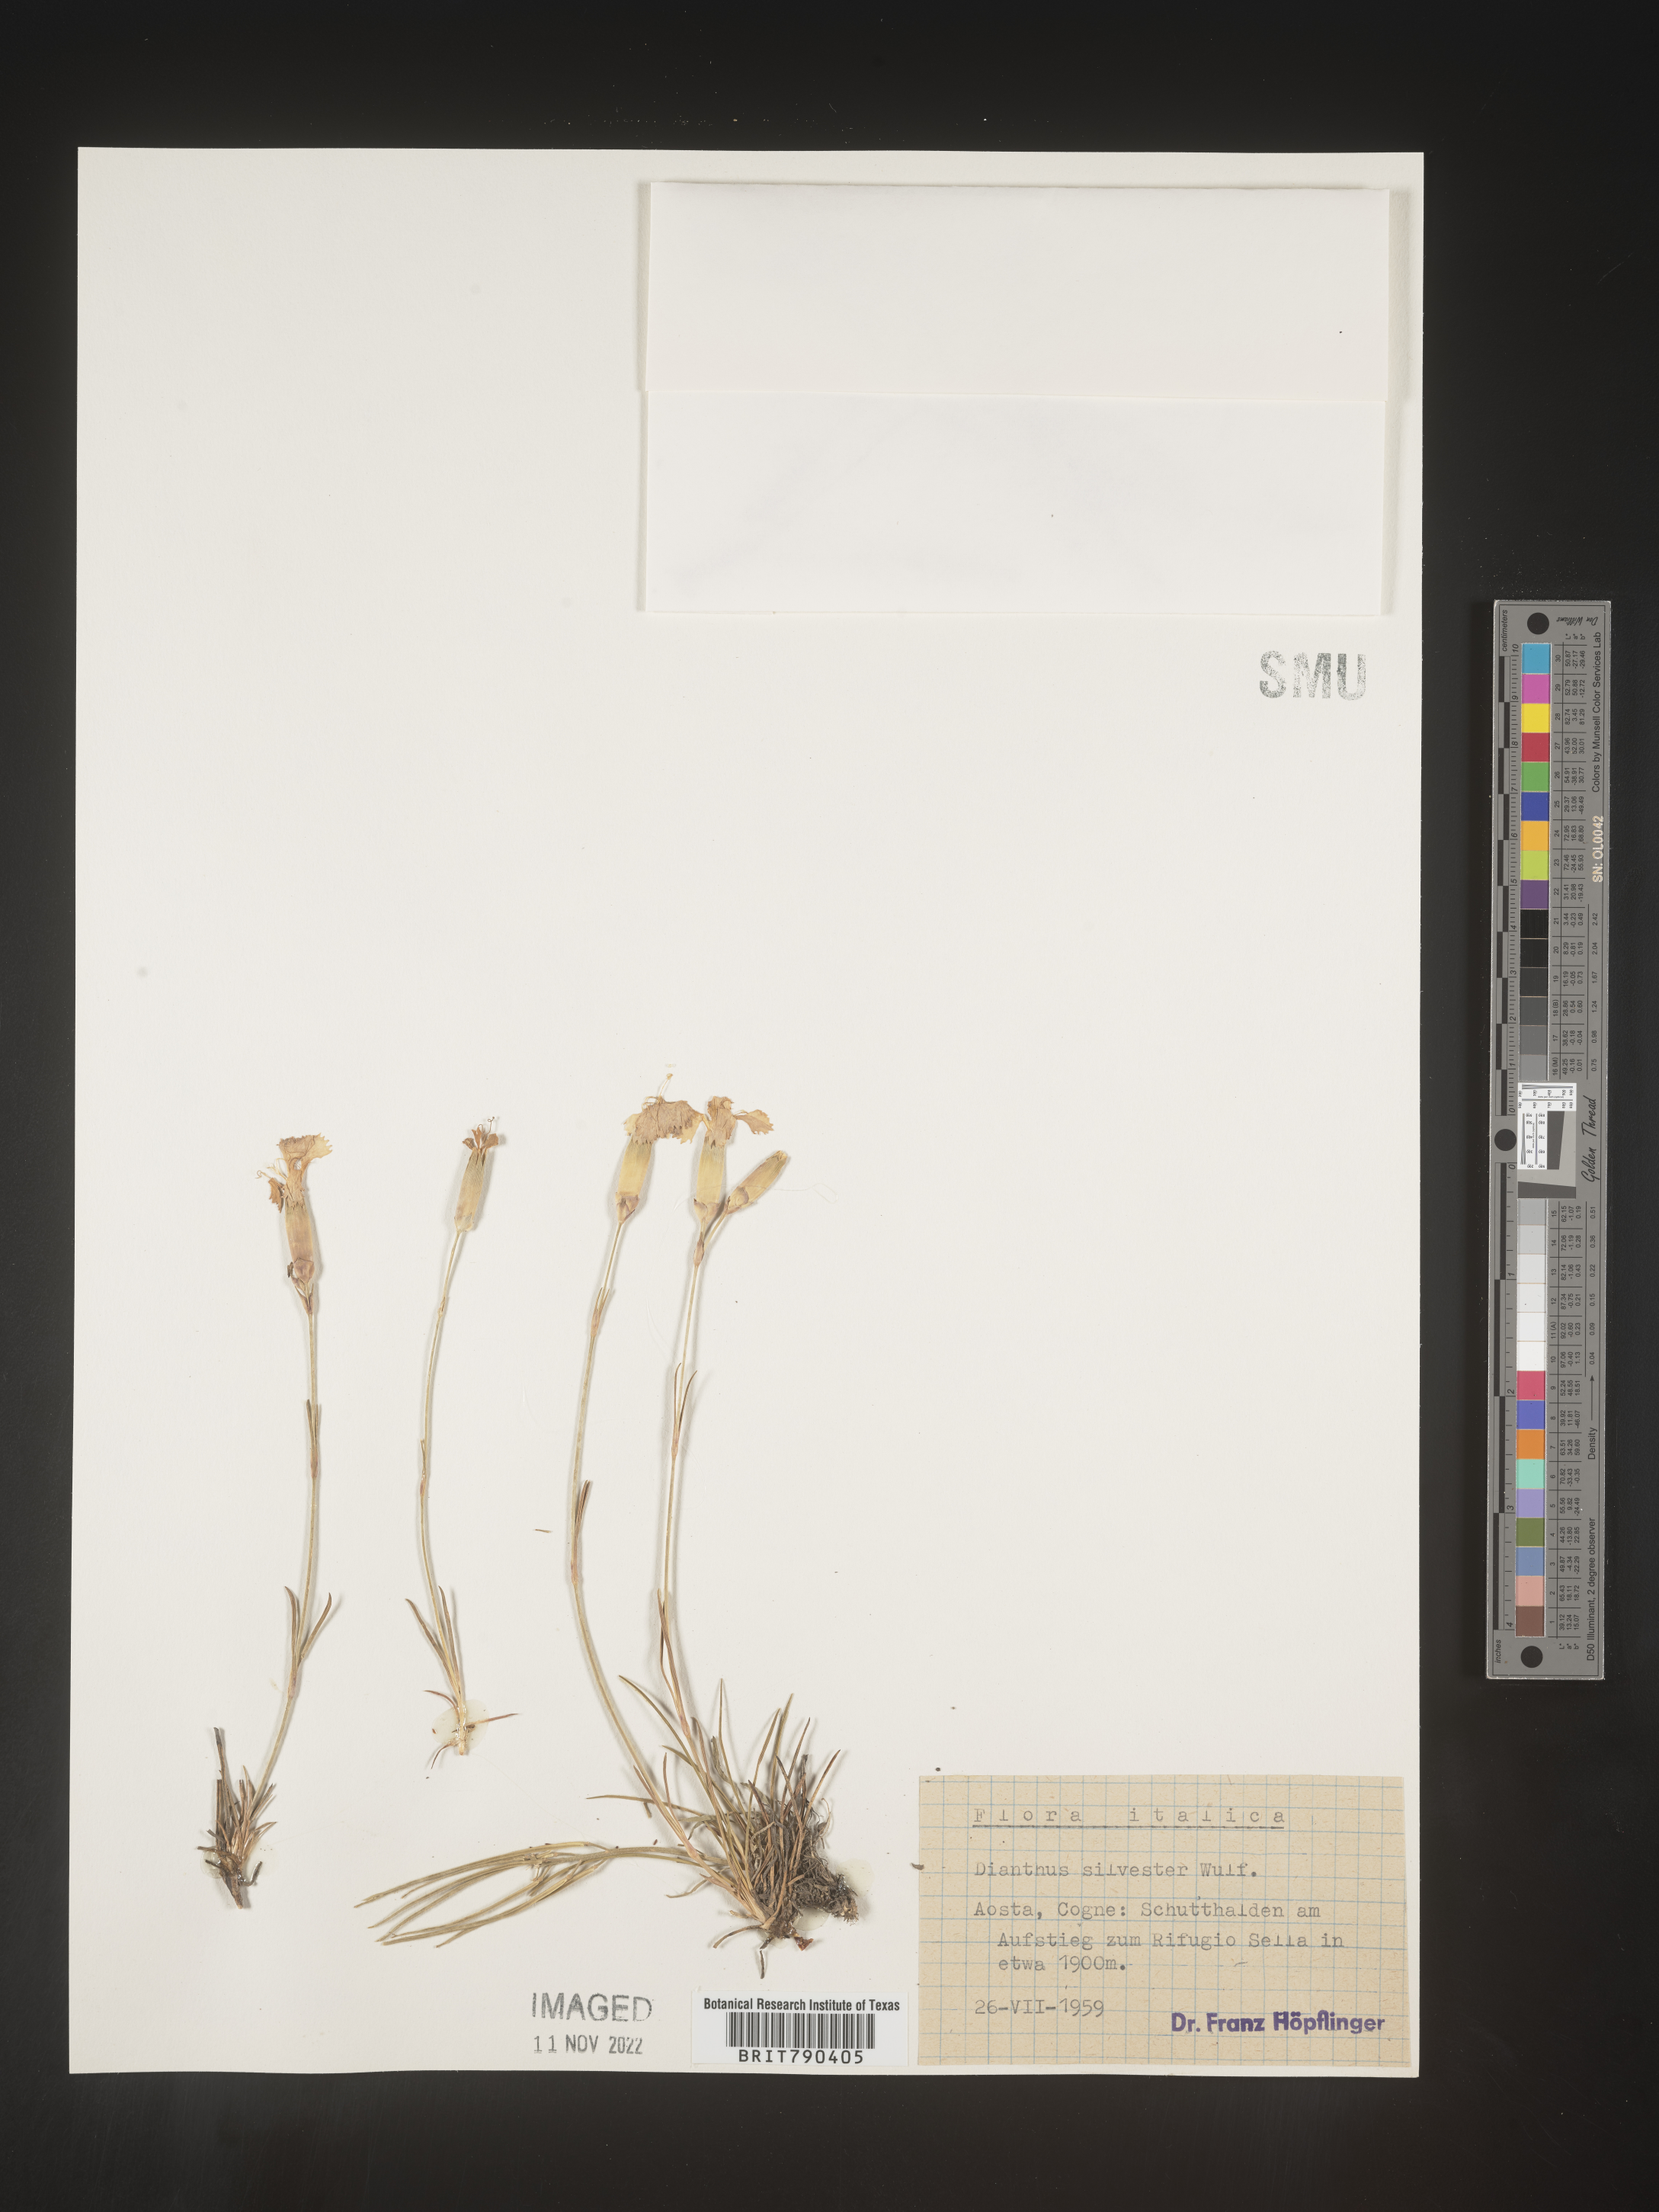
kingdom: Plantae
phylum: Tracheophyta
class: Magnoliopsida
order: Caryophyllales
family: Caryophyllaceae
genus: Dianthus
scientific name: Dianthus
